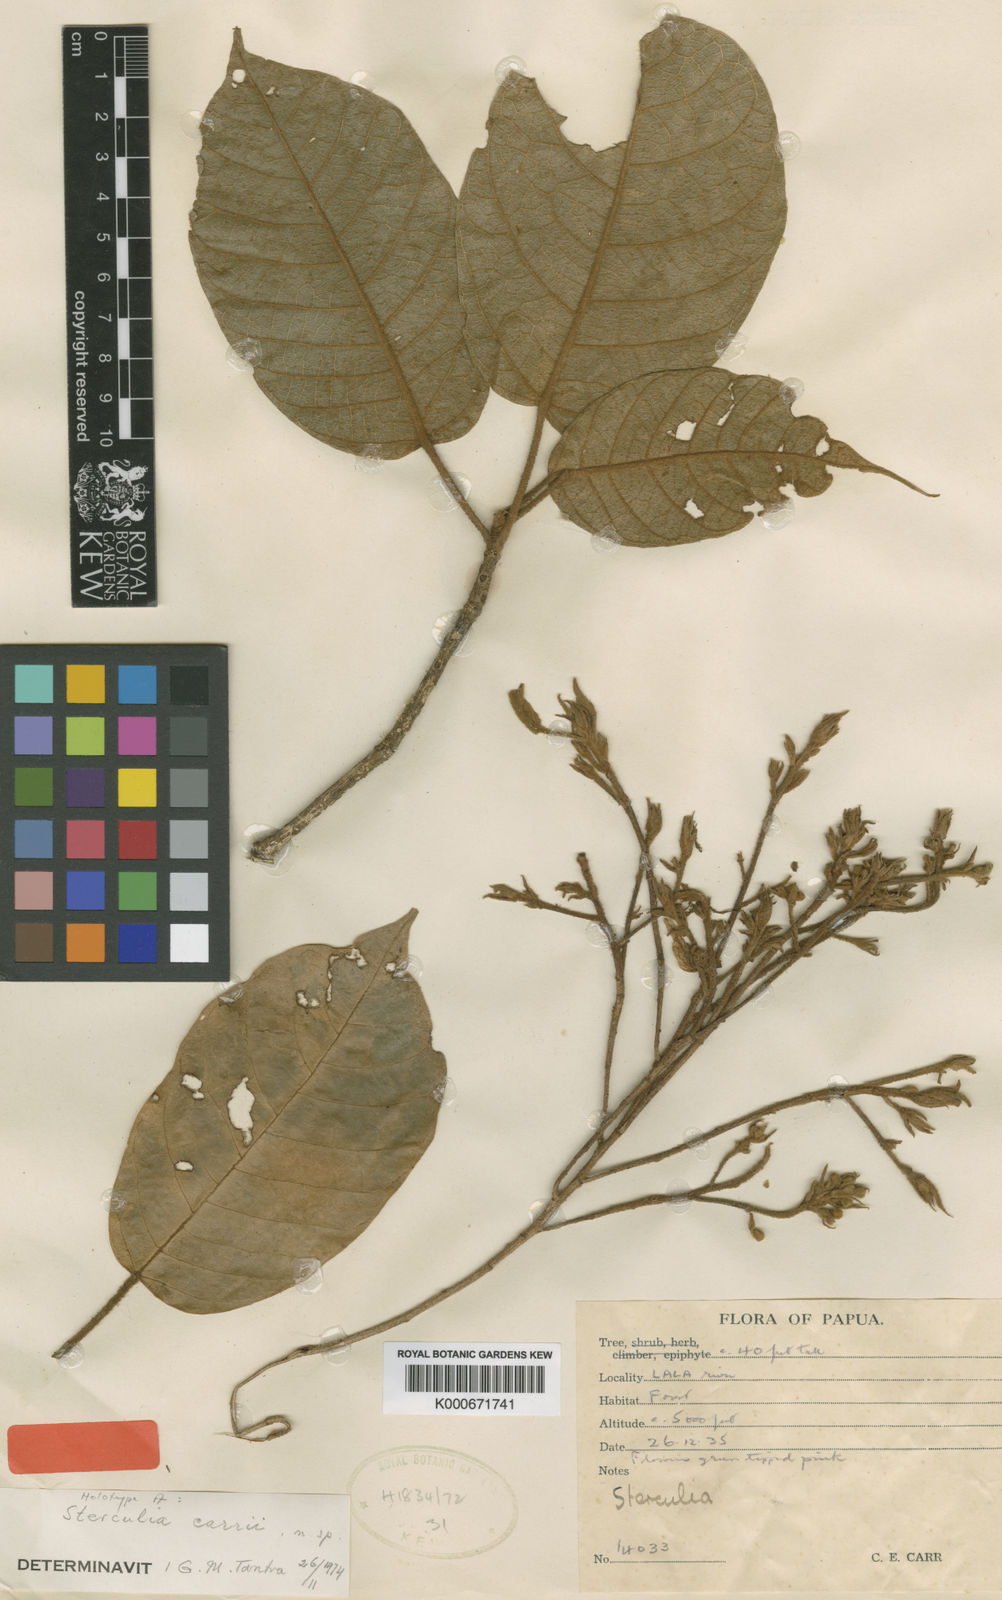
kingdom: Plantae
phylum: Tracheophyta
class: Magnoliopsida
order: Malvales
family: Malvaceae
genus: Sterculia
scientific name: Sterculia carrii
